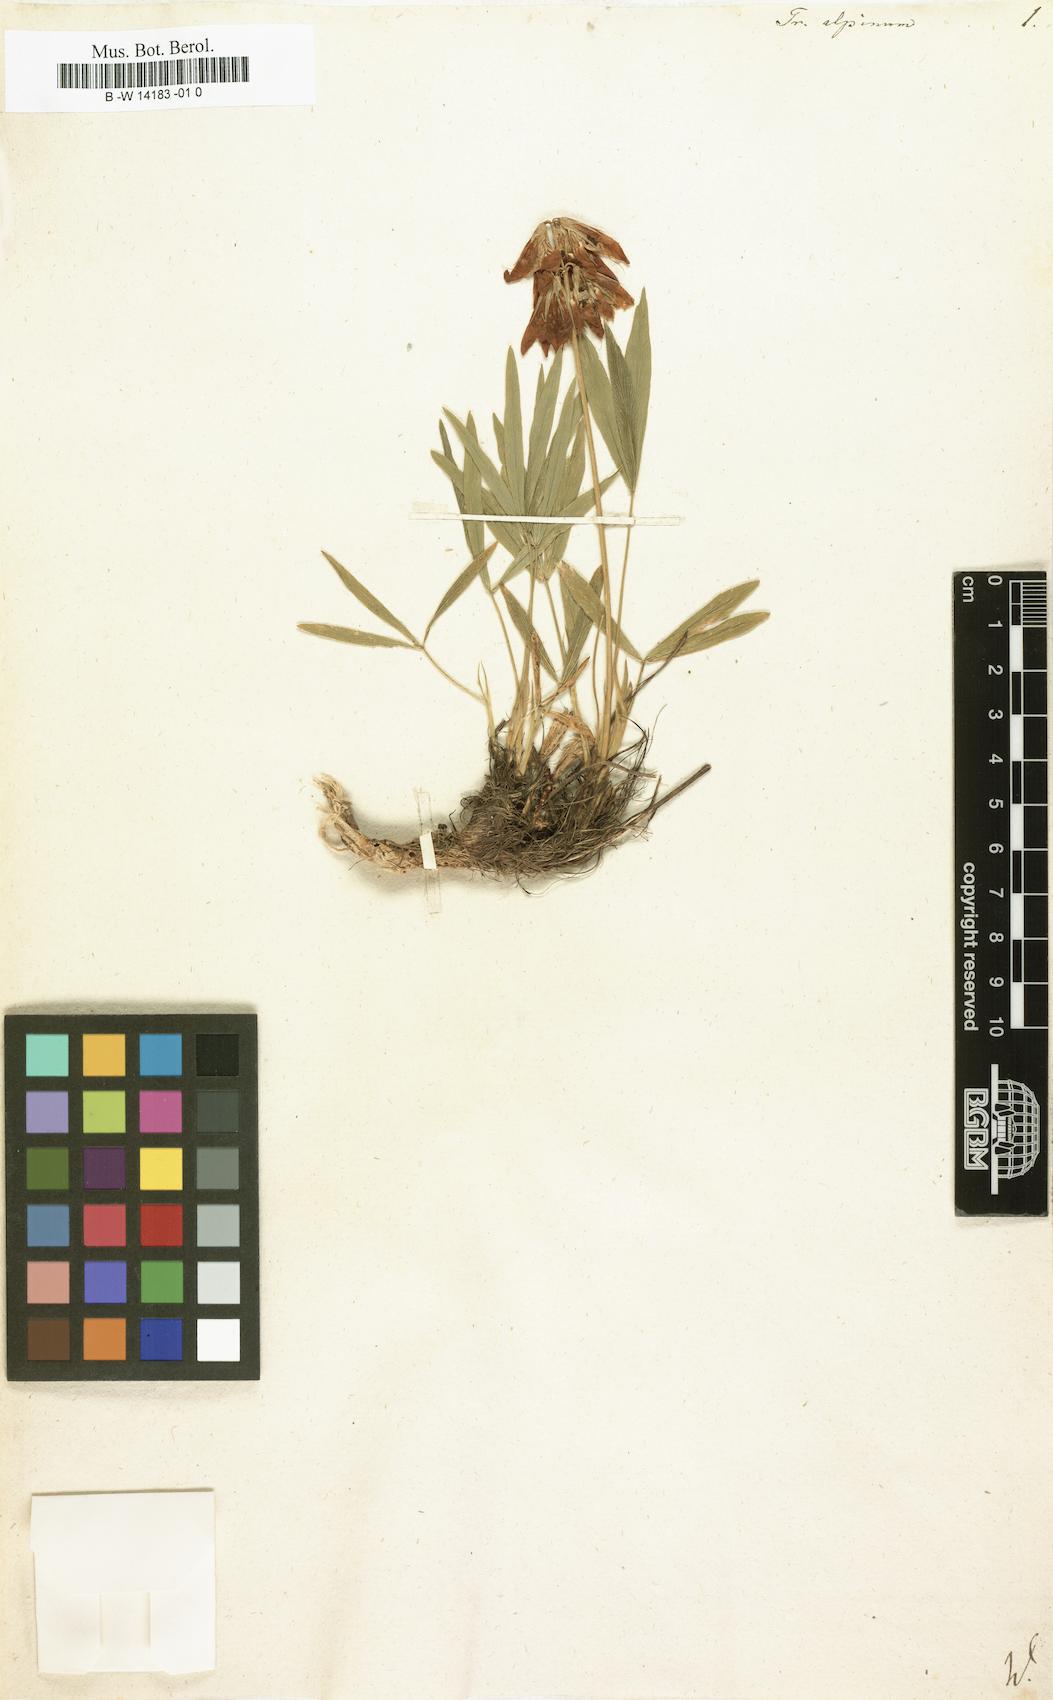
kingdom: Plantae
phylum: Tracheophyta
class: Magnoliopsida
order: Fabales
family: Fabaceae
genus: Trifolium
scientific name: Trifolium alpestre
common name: Owl-head clover
